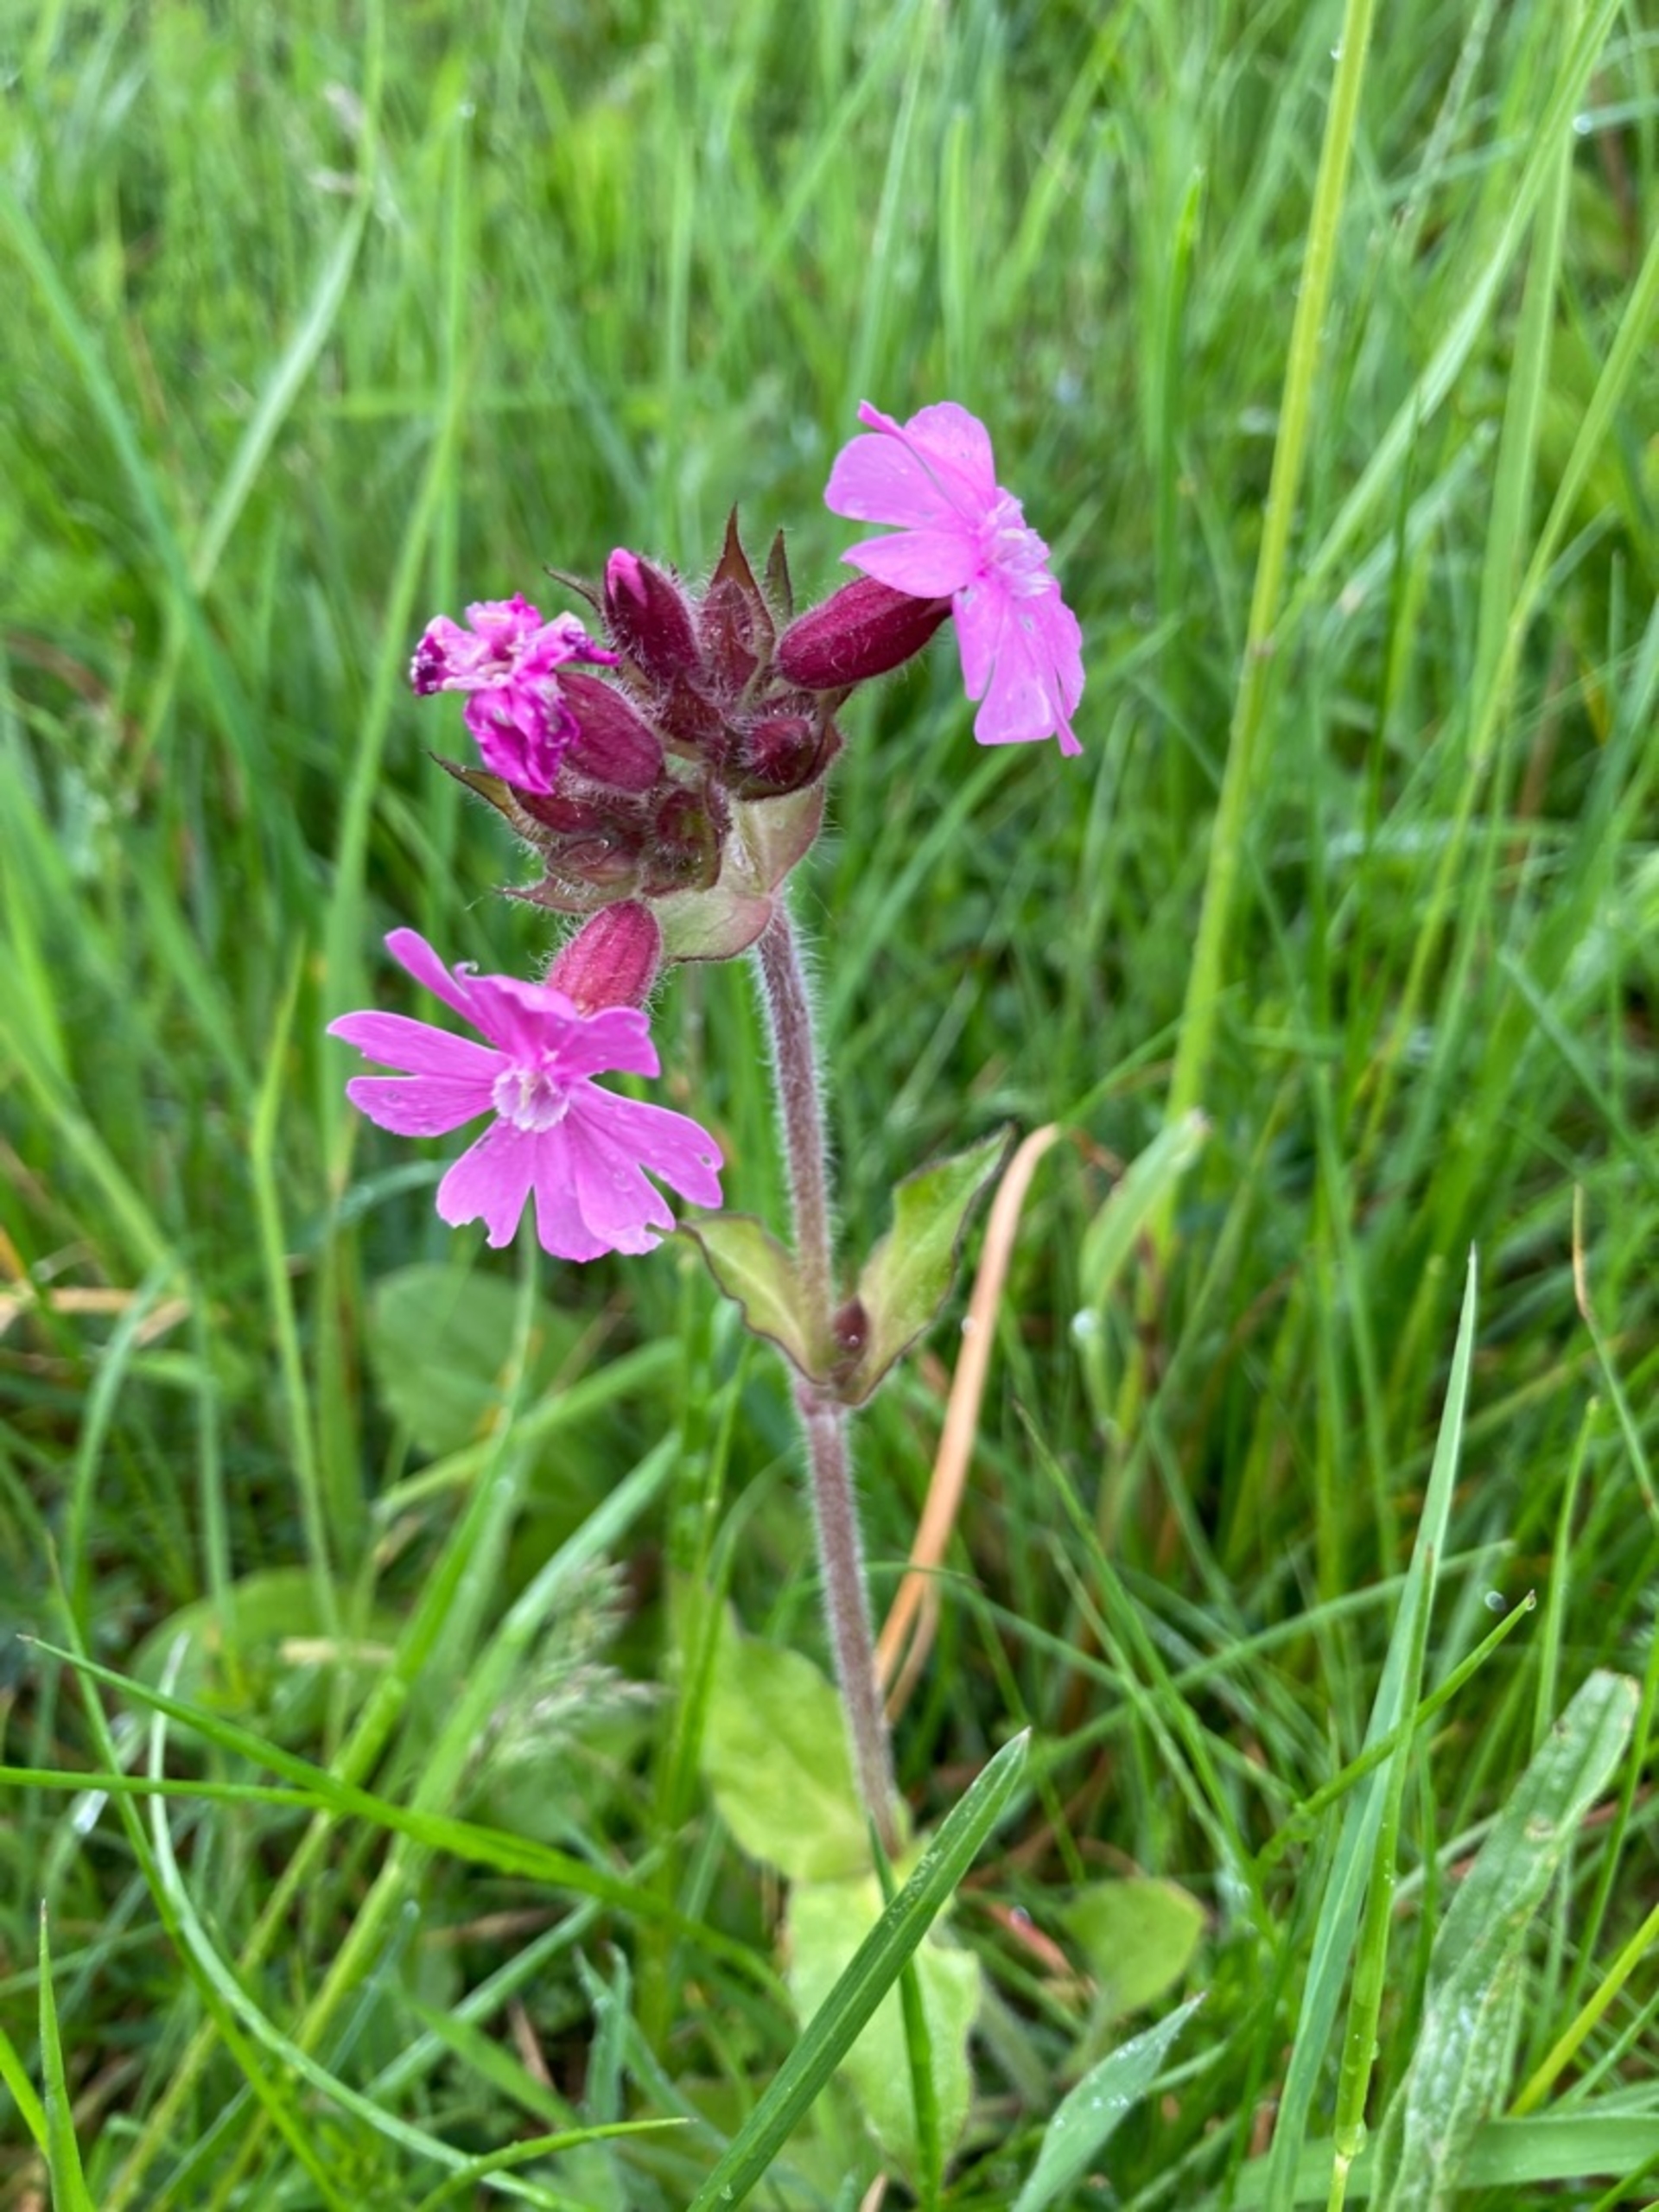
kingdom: Plantae
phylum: Tracheophyta
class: Magnoliopsida
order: Caryophyllales
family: Caryophyllaceae
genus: Silene
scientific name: Silene dioica
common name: Dagpragtstjerne
